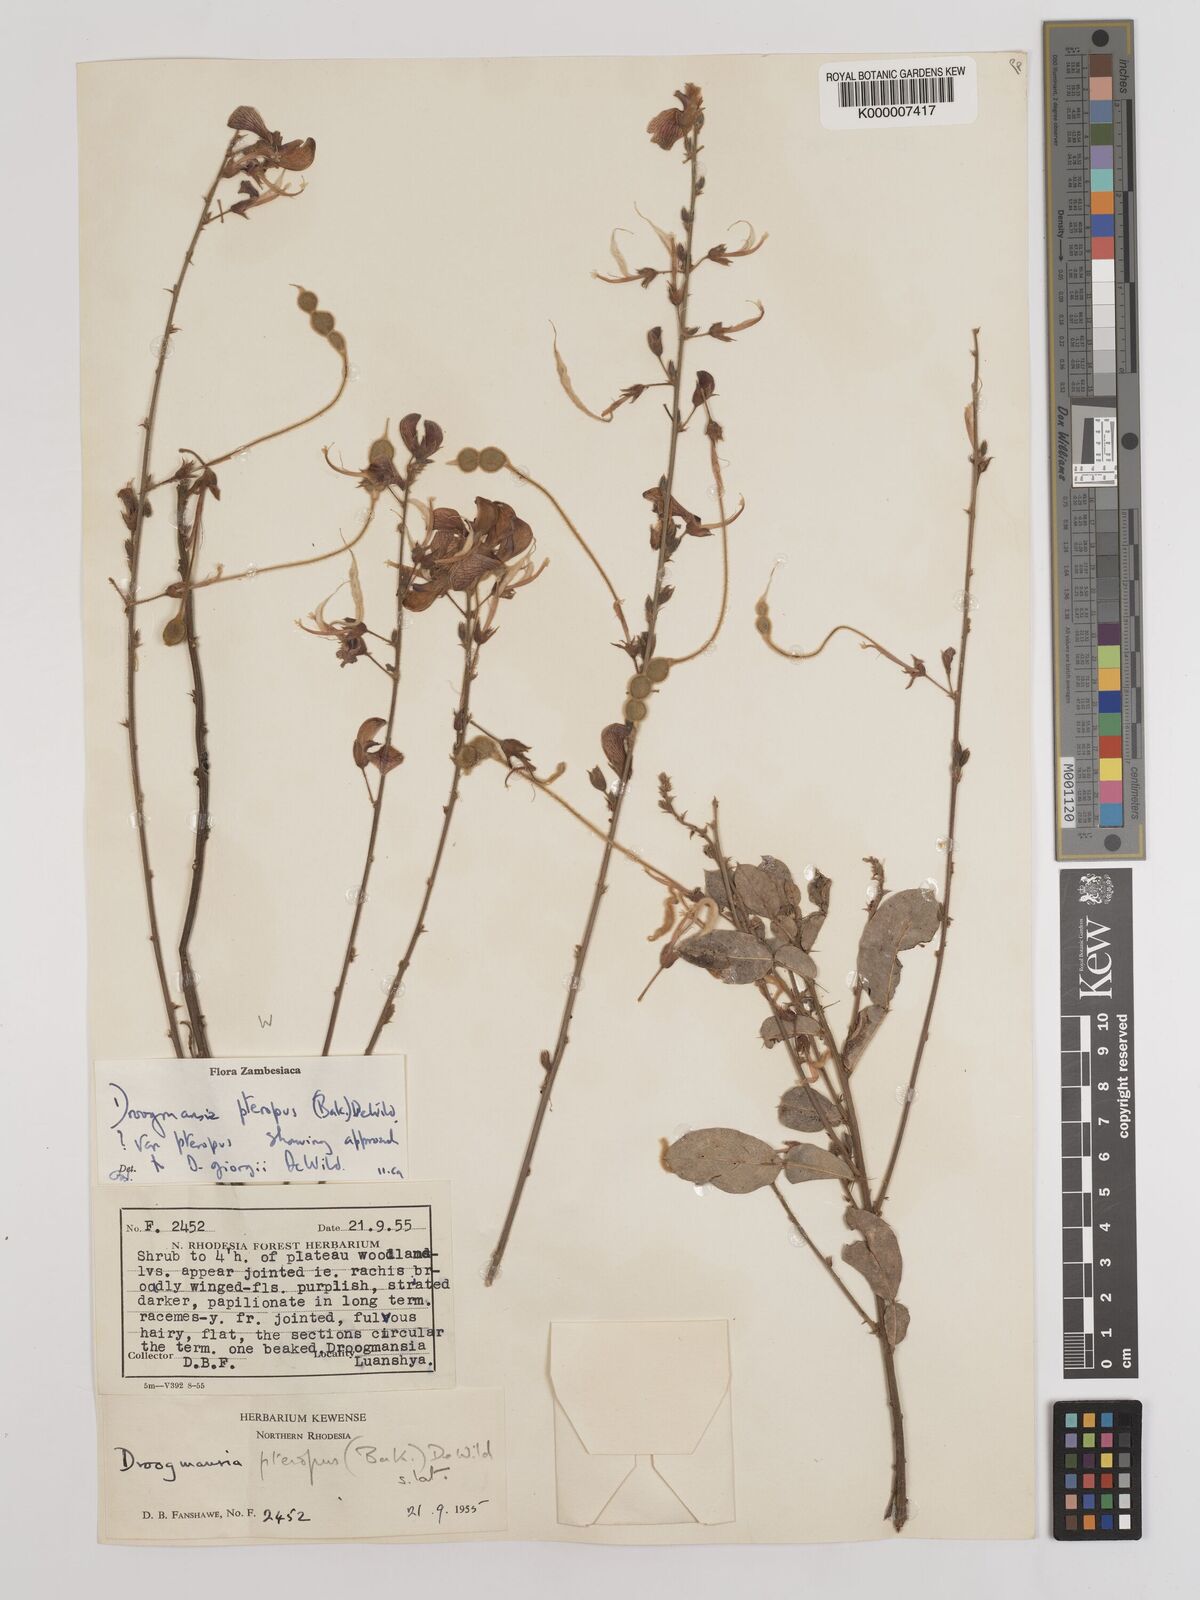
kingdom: Plantae
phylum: Tracheophyta
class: Magnoliopsida
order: Fabales
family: Fabaceae
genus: Droogmansia
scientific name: Droogmansia pteropus
